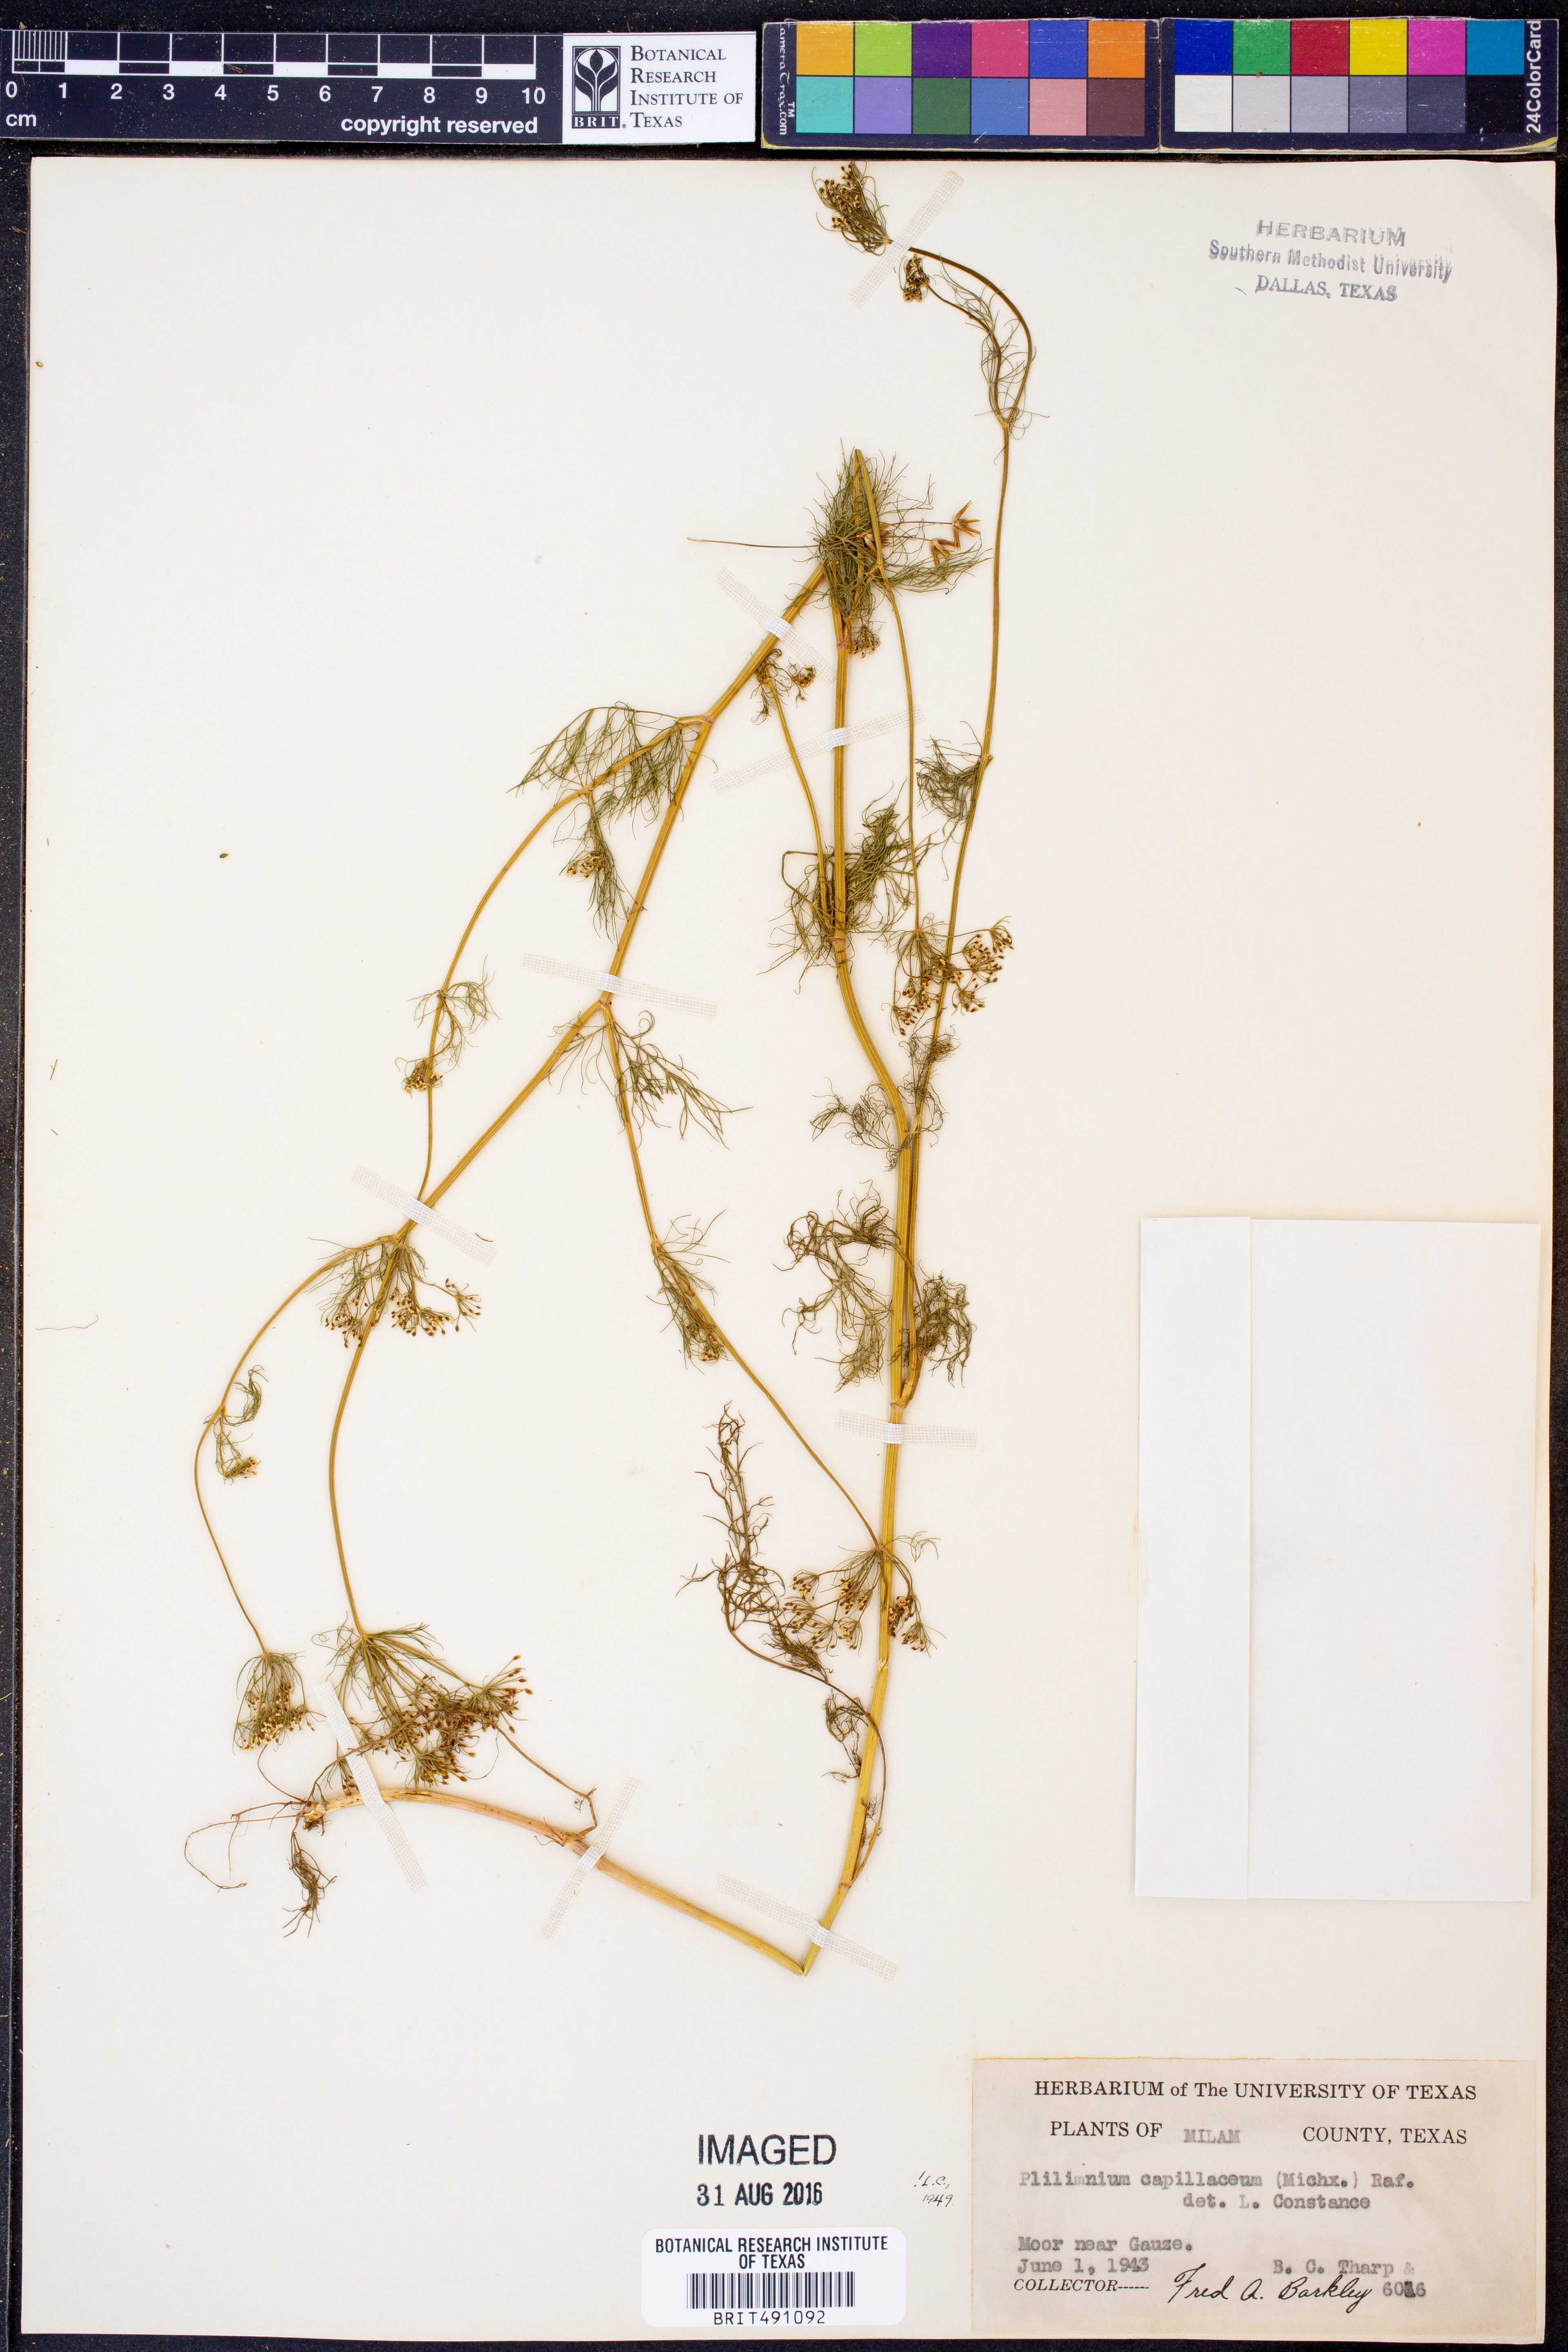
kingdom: Plantae
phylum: Tracheophyta
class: Magnoliopsida
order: Apiales
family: Apiaceae
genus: Ptilimnium
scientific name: Ptilimnium capillaceum
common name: Herbwilliam
